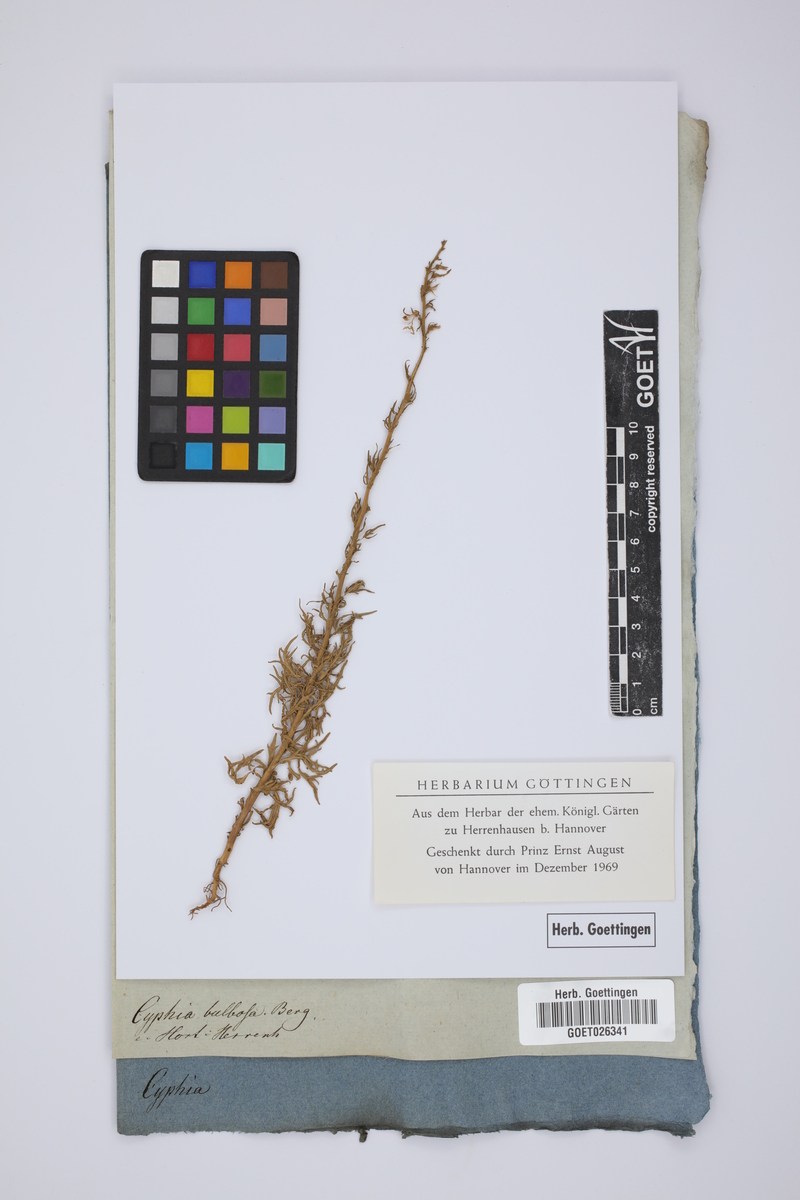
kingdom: Plantae
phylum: Tracheophyta
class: Magnoliopsida
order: Asterales
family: Campanulaceae
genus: Cyphia
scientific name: Cyphia bulbosa
